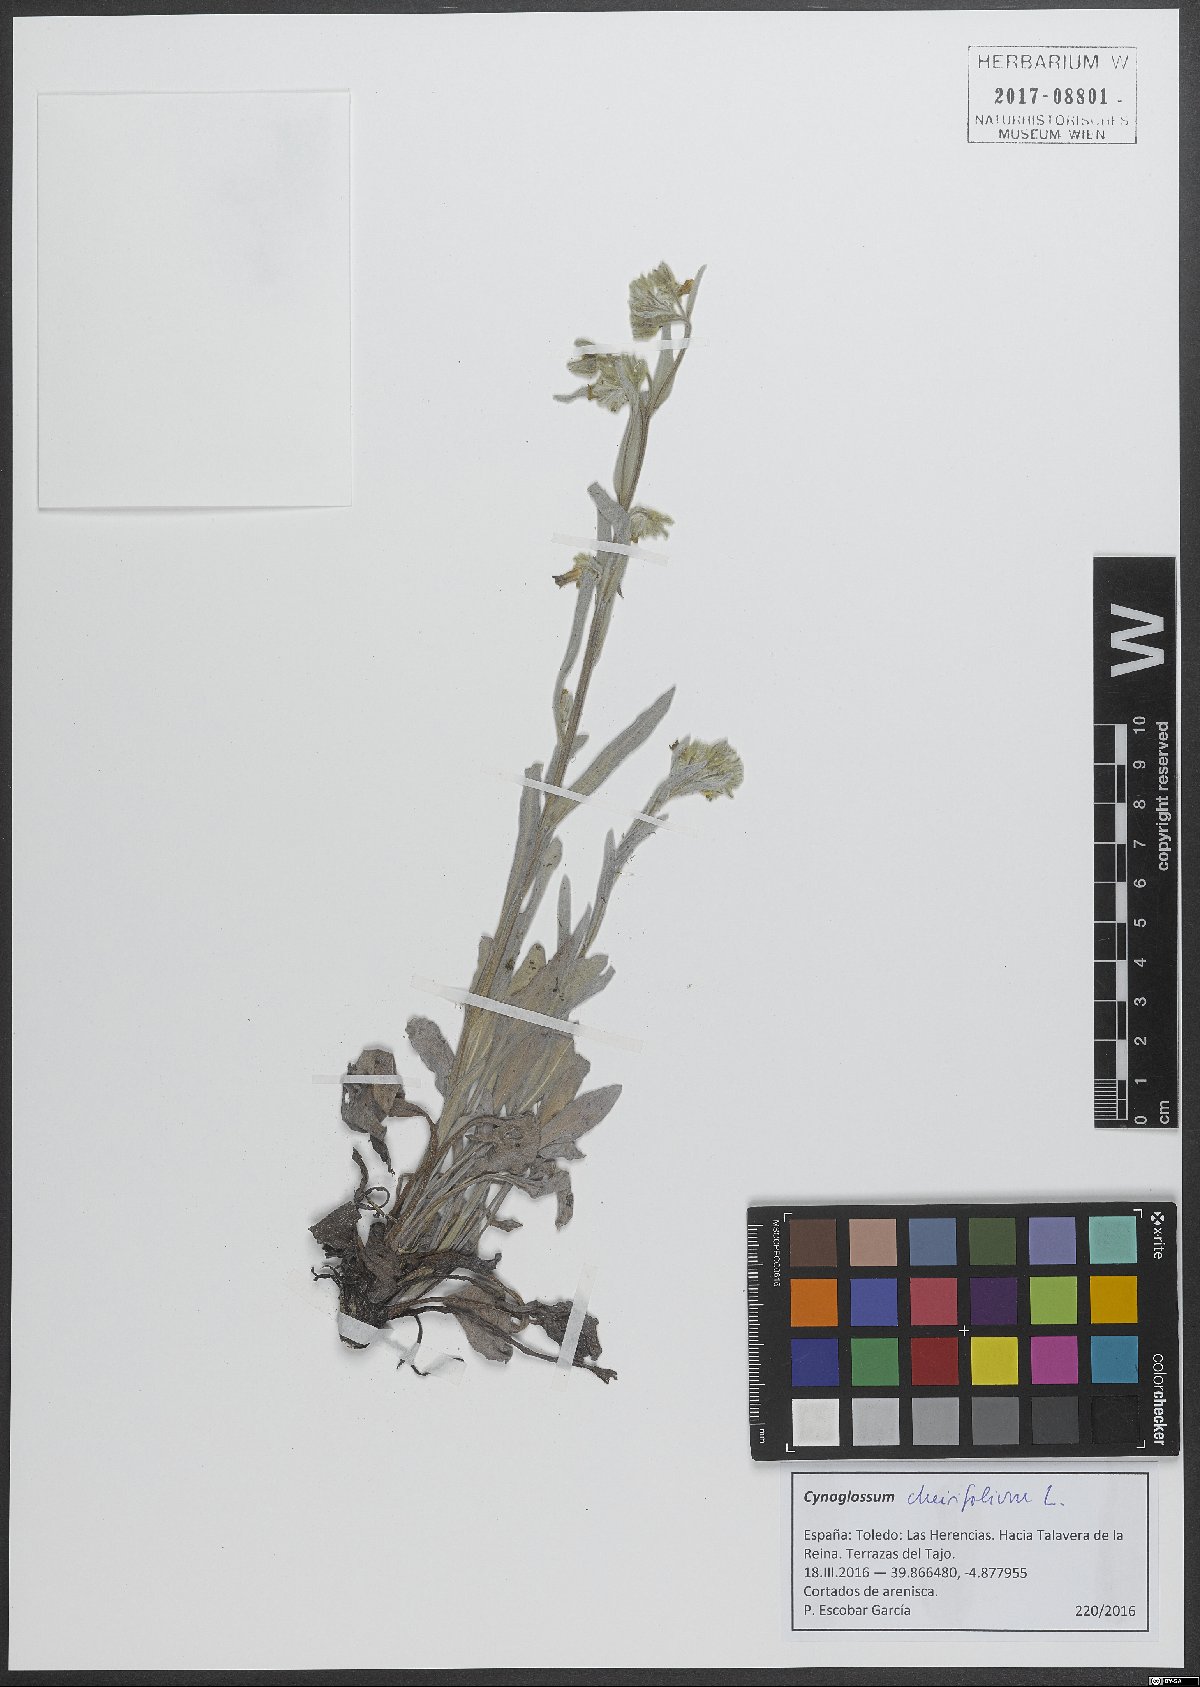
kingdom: Plantae
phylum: Tracheophyta
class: Magnoliopsida
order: Boraginales
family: Boraginaceae
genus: Pardoglossum
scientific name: Pardoglossum cheirifolium
